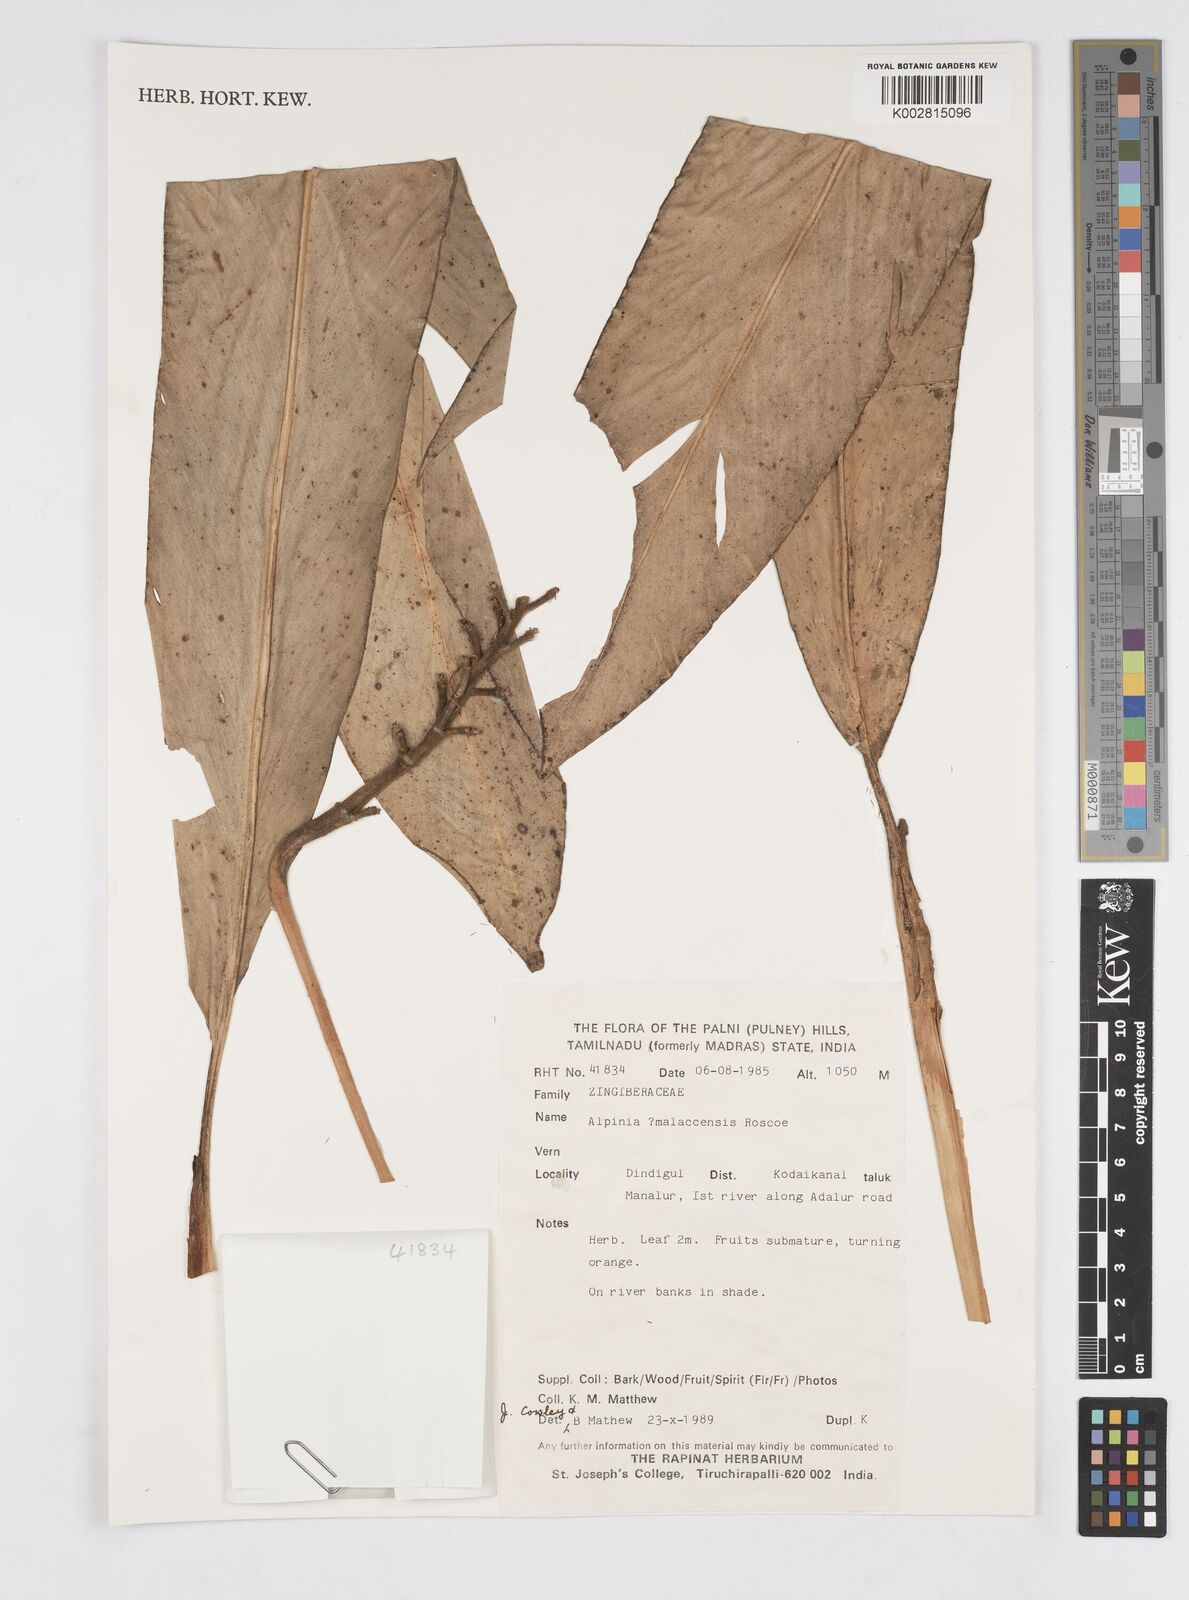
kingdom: Plantae
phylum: Tracheophyta
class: Liliopsida
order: Zingiberales
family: Zingiberaceae
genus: Alpinia
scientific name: Alpinia malaccensis
